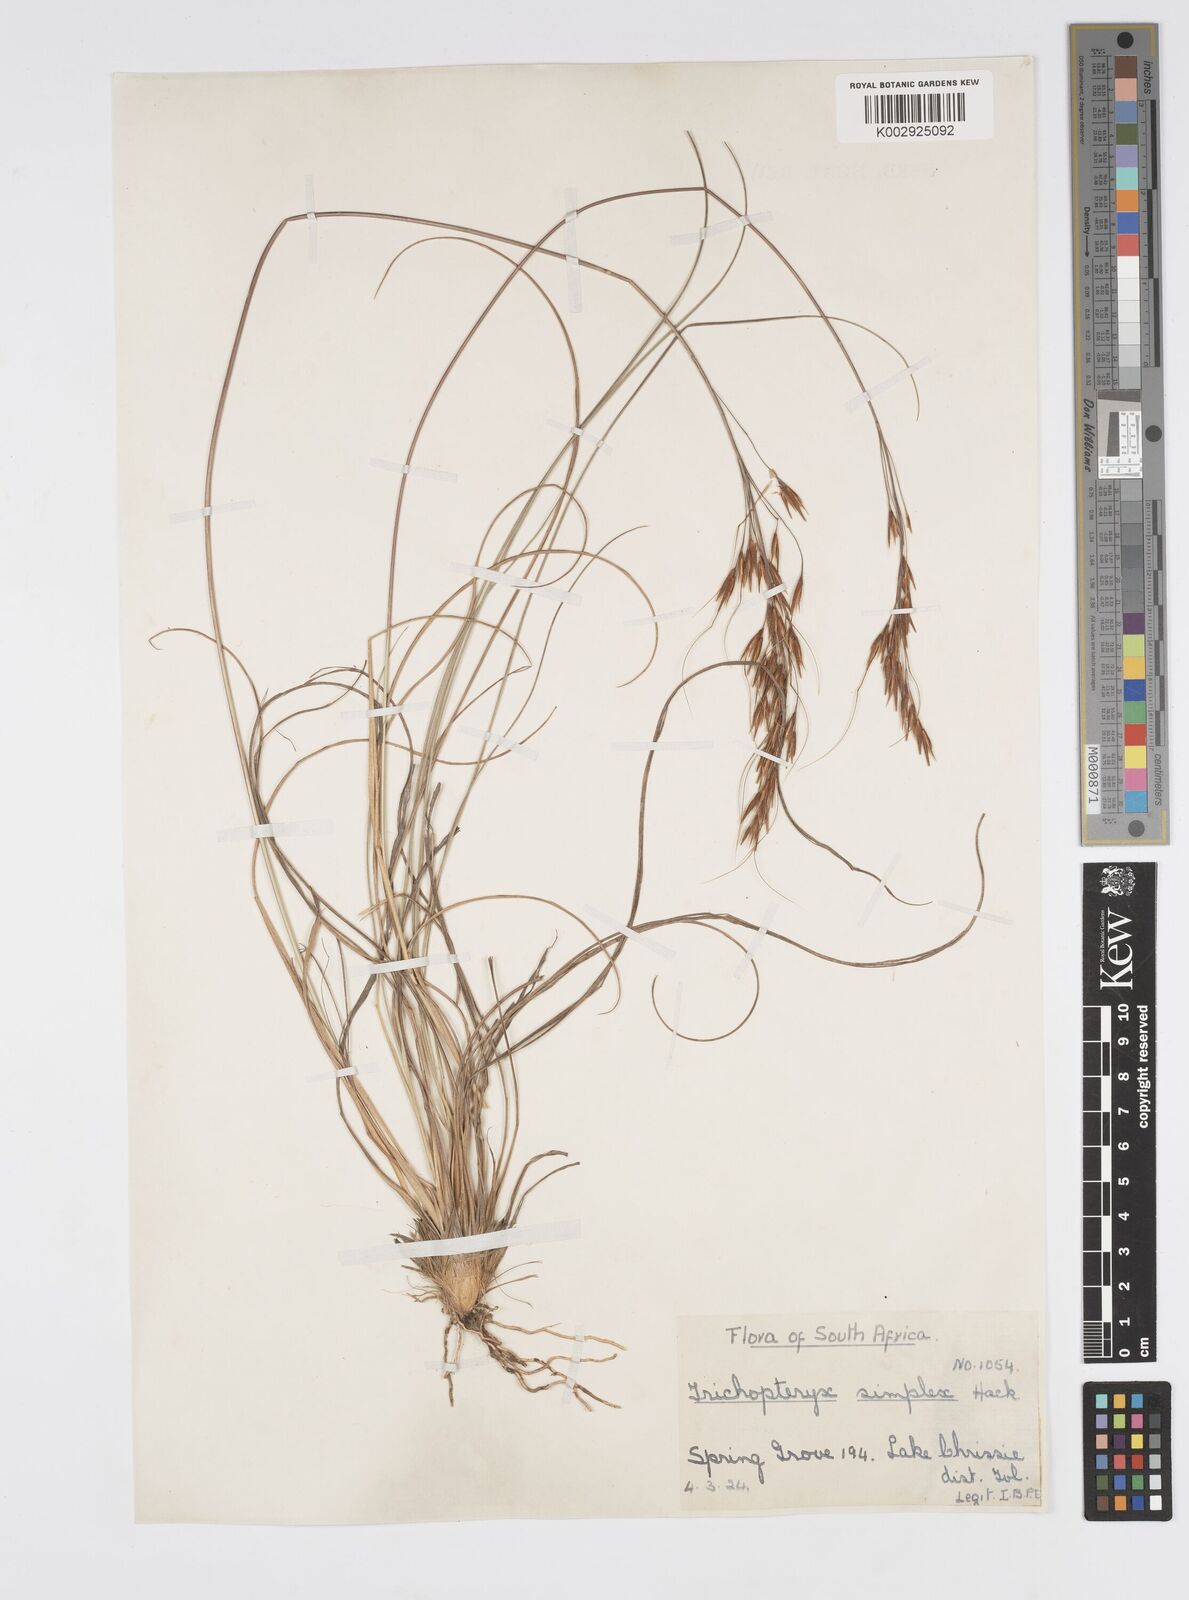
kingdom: Plantae
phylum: Tracheophyta
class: Liliopsida
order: Poales
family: Poaceae
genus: Loudetia
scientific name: Loudetia simplex
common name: Common russet grass
